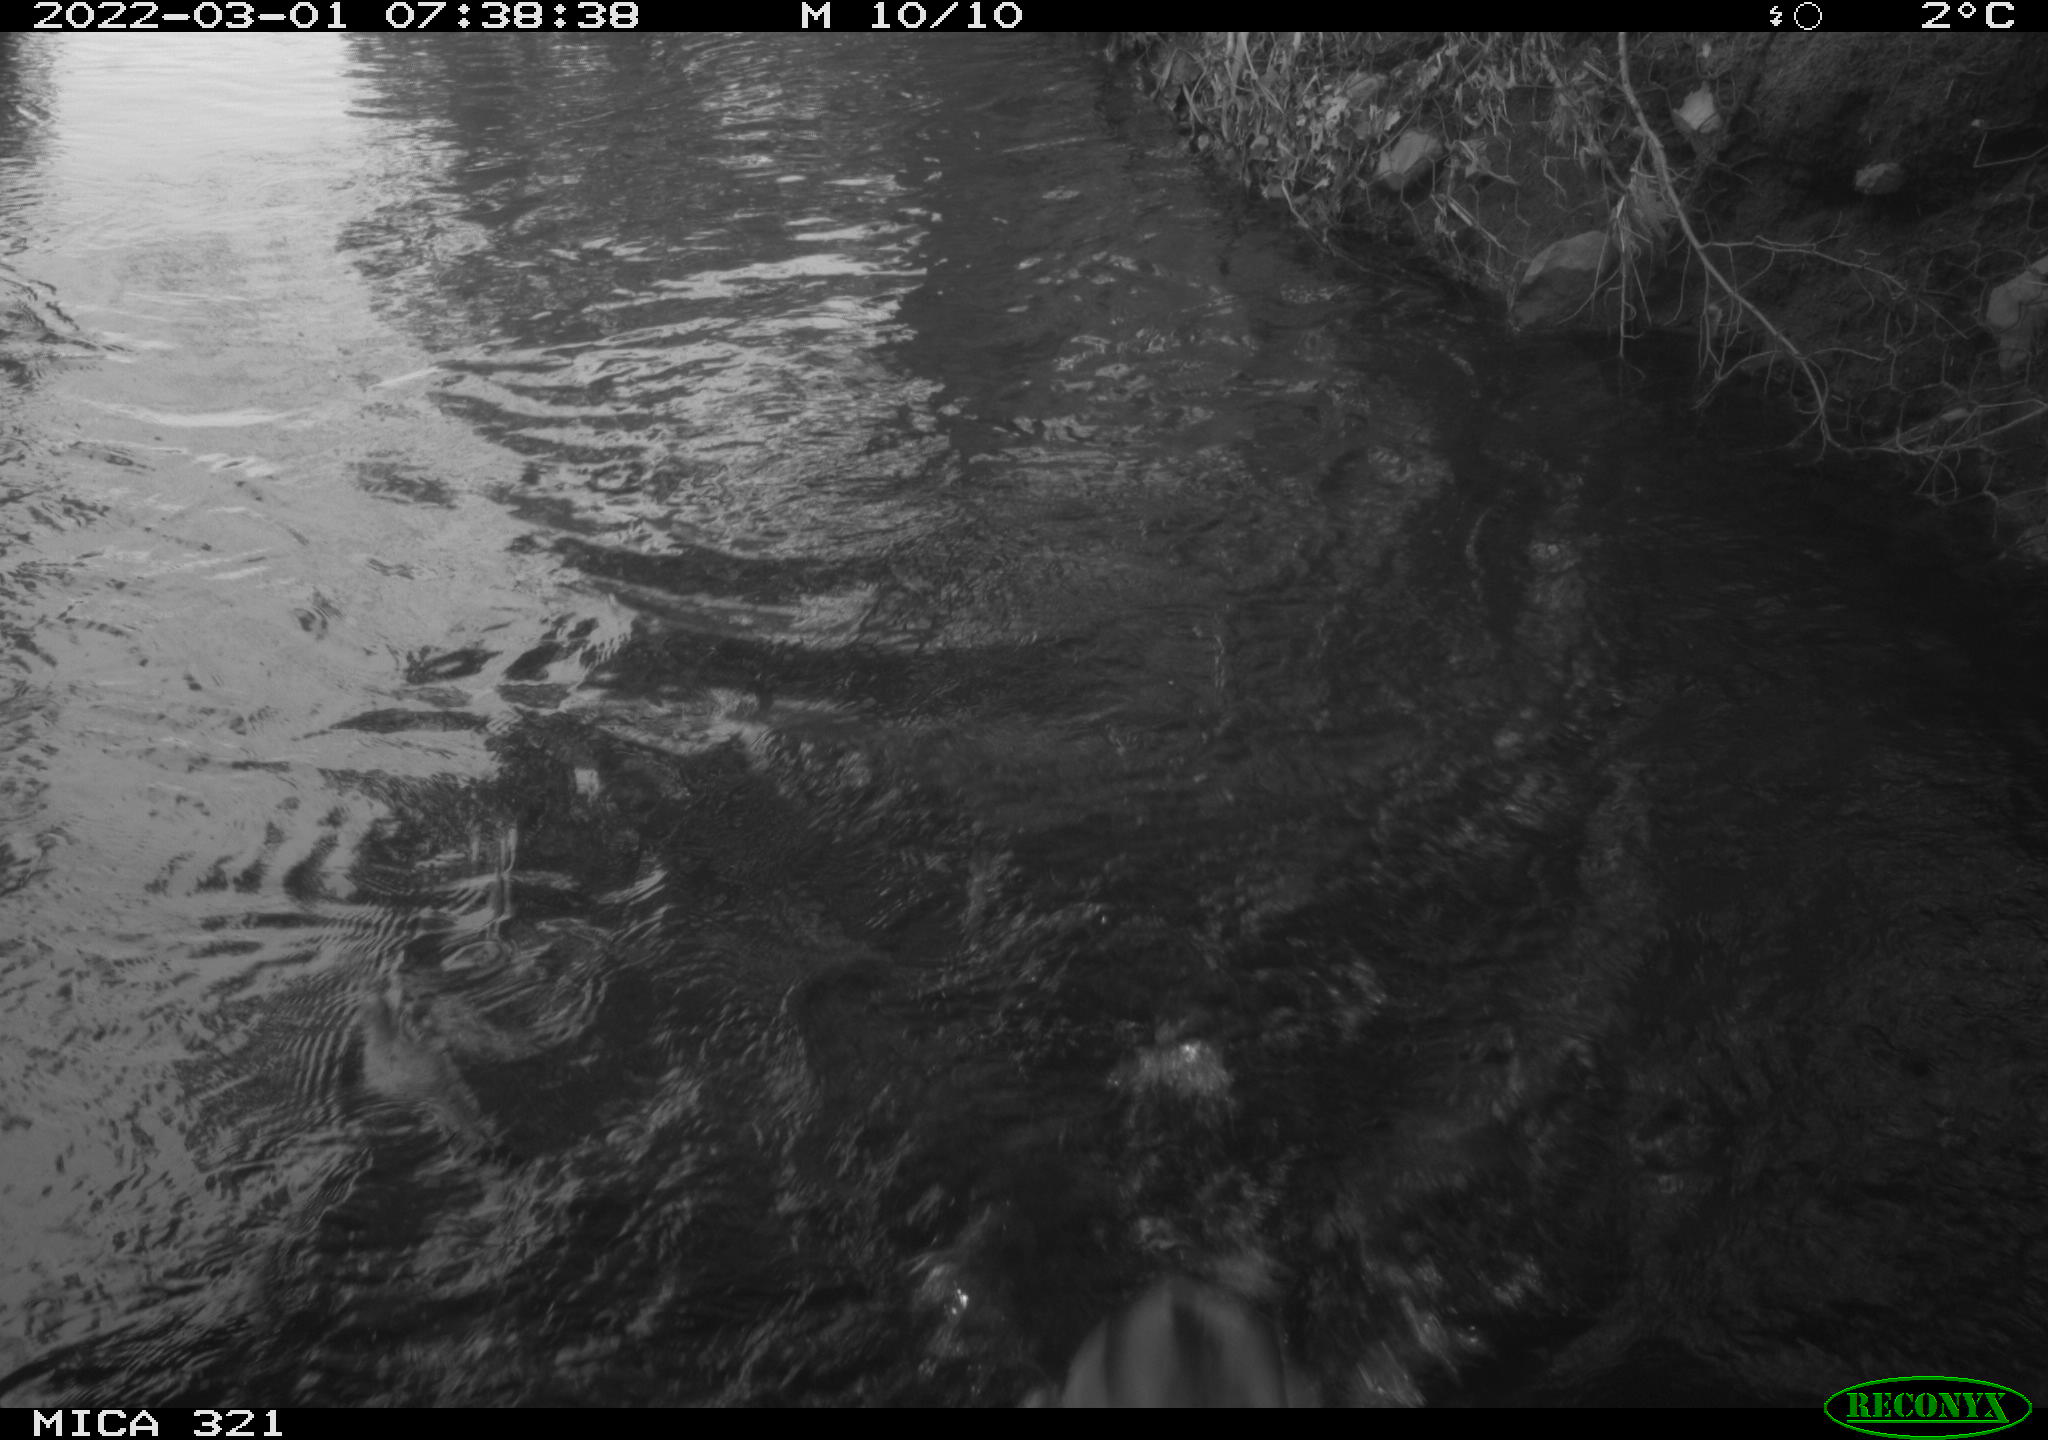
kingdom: Animalia
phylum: Chordata
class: Aves
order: Anseriformes
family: Anatidae
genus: Anas
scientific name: Anas platyrhynchos
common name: Mallard
